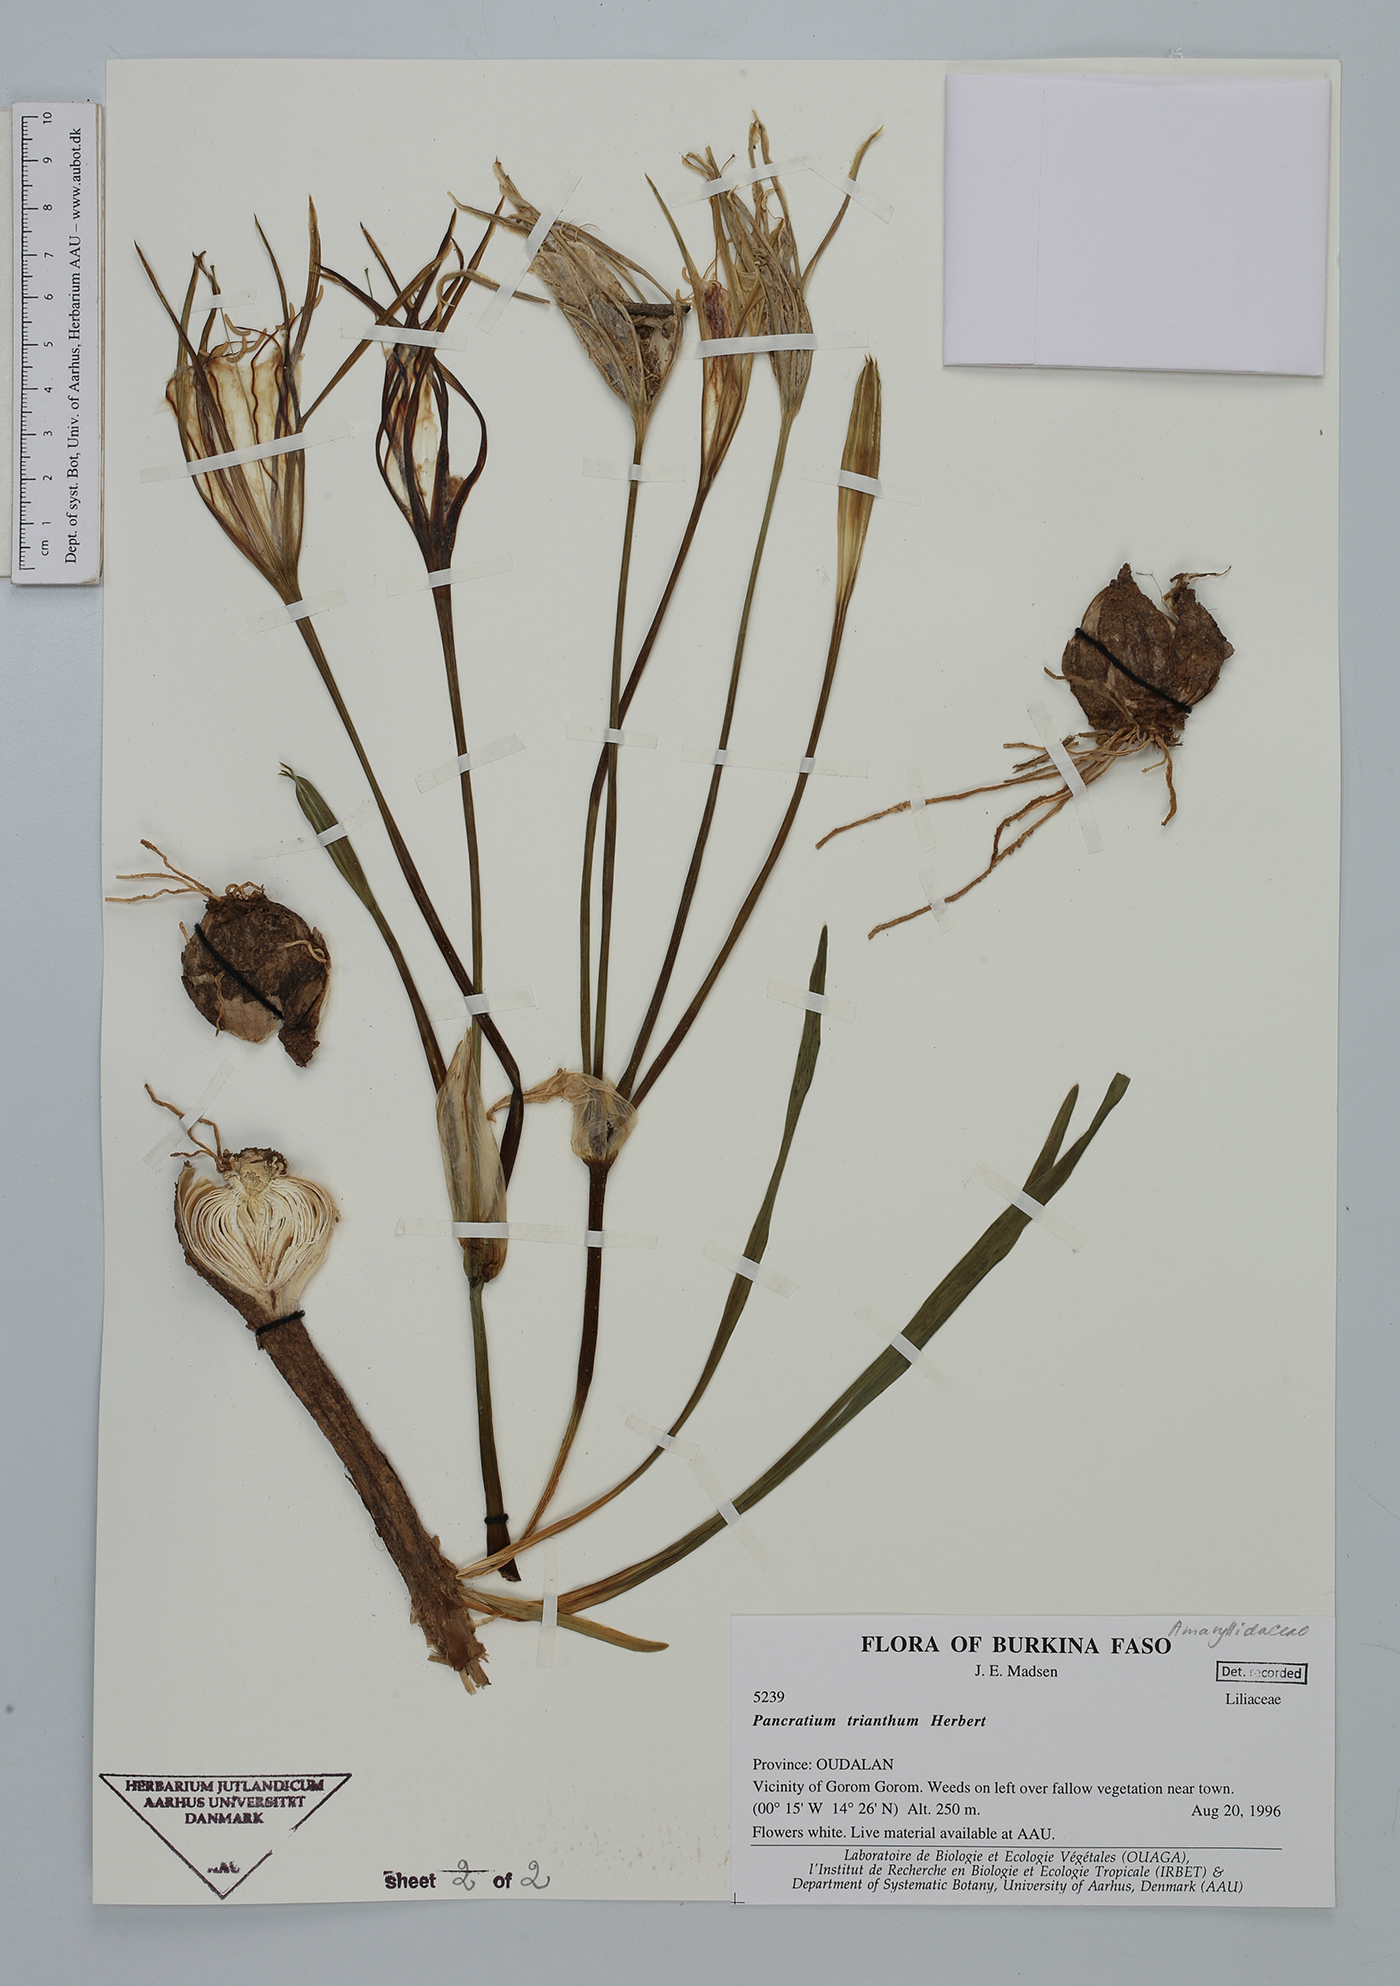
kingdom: Plantae
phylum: Tracheophyta
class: Liliopsida
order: Asparagales
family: Amaryllidaceae
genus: Pancratium
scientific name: Pancratium trianthum
